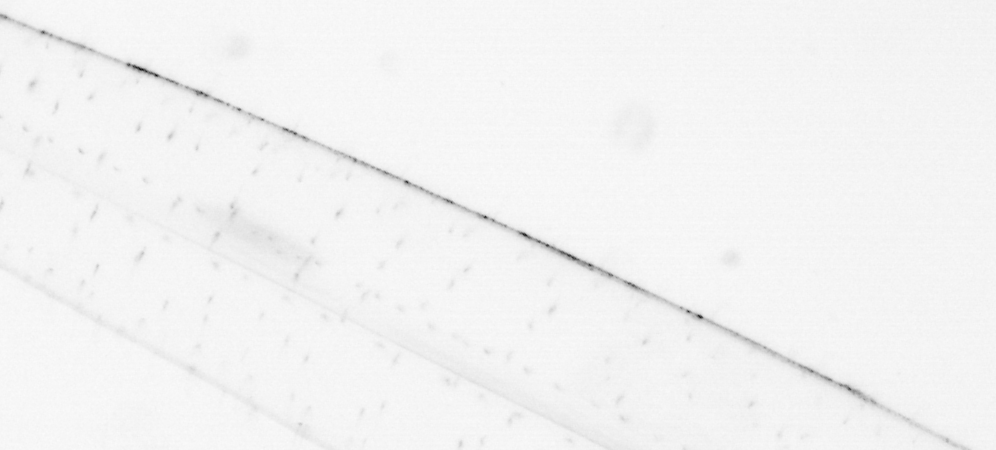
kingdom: Animalia
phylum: Chaetognatha
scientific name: Chaetognatha
